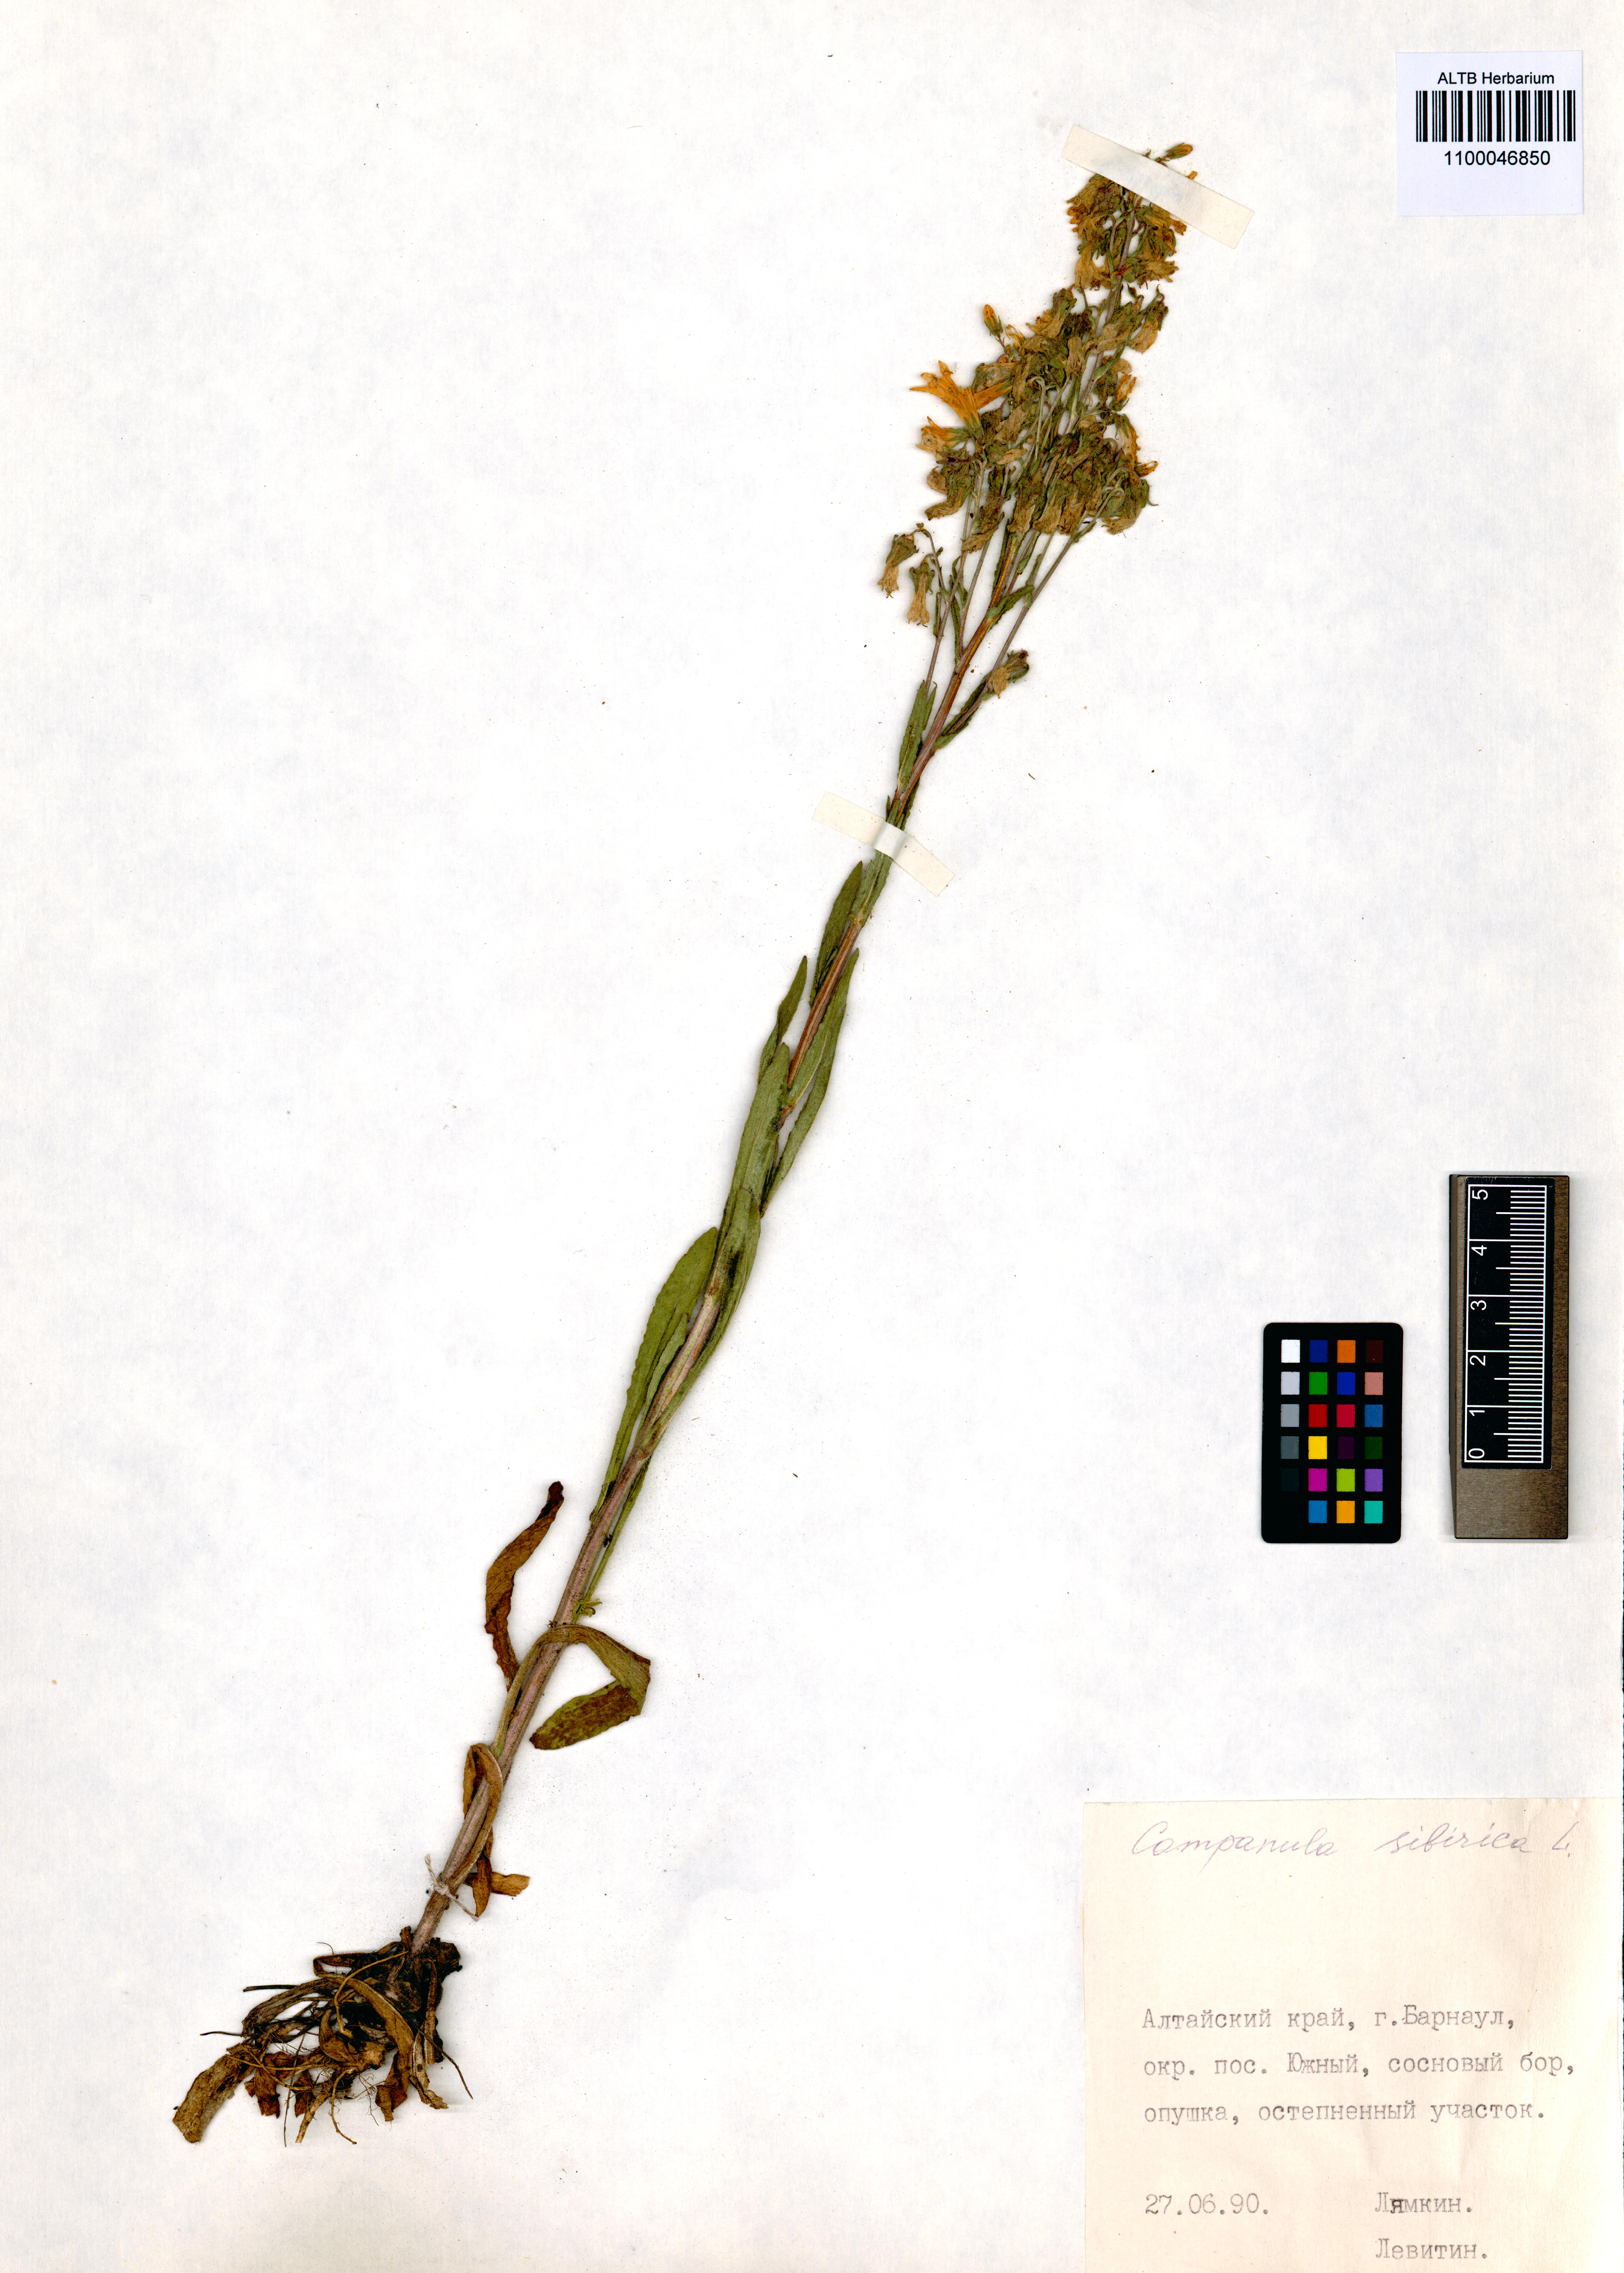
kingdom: Plantae
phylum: Tracheophyta
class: Magnoliopsida
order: Asterales
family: Campanulaceae
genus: Campanula
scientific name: Campanula sibirica
